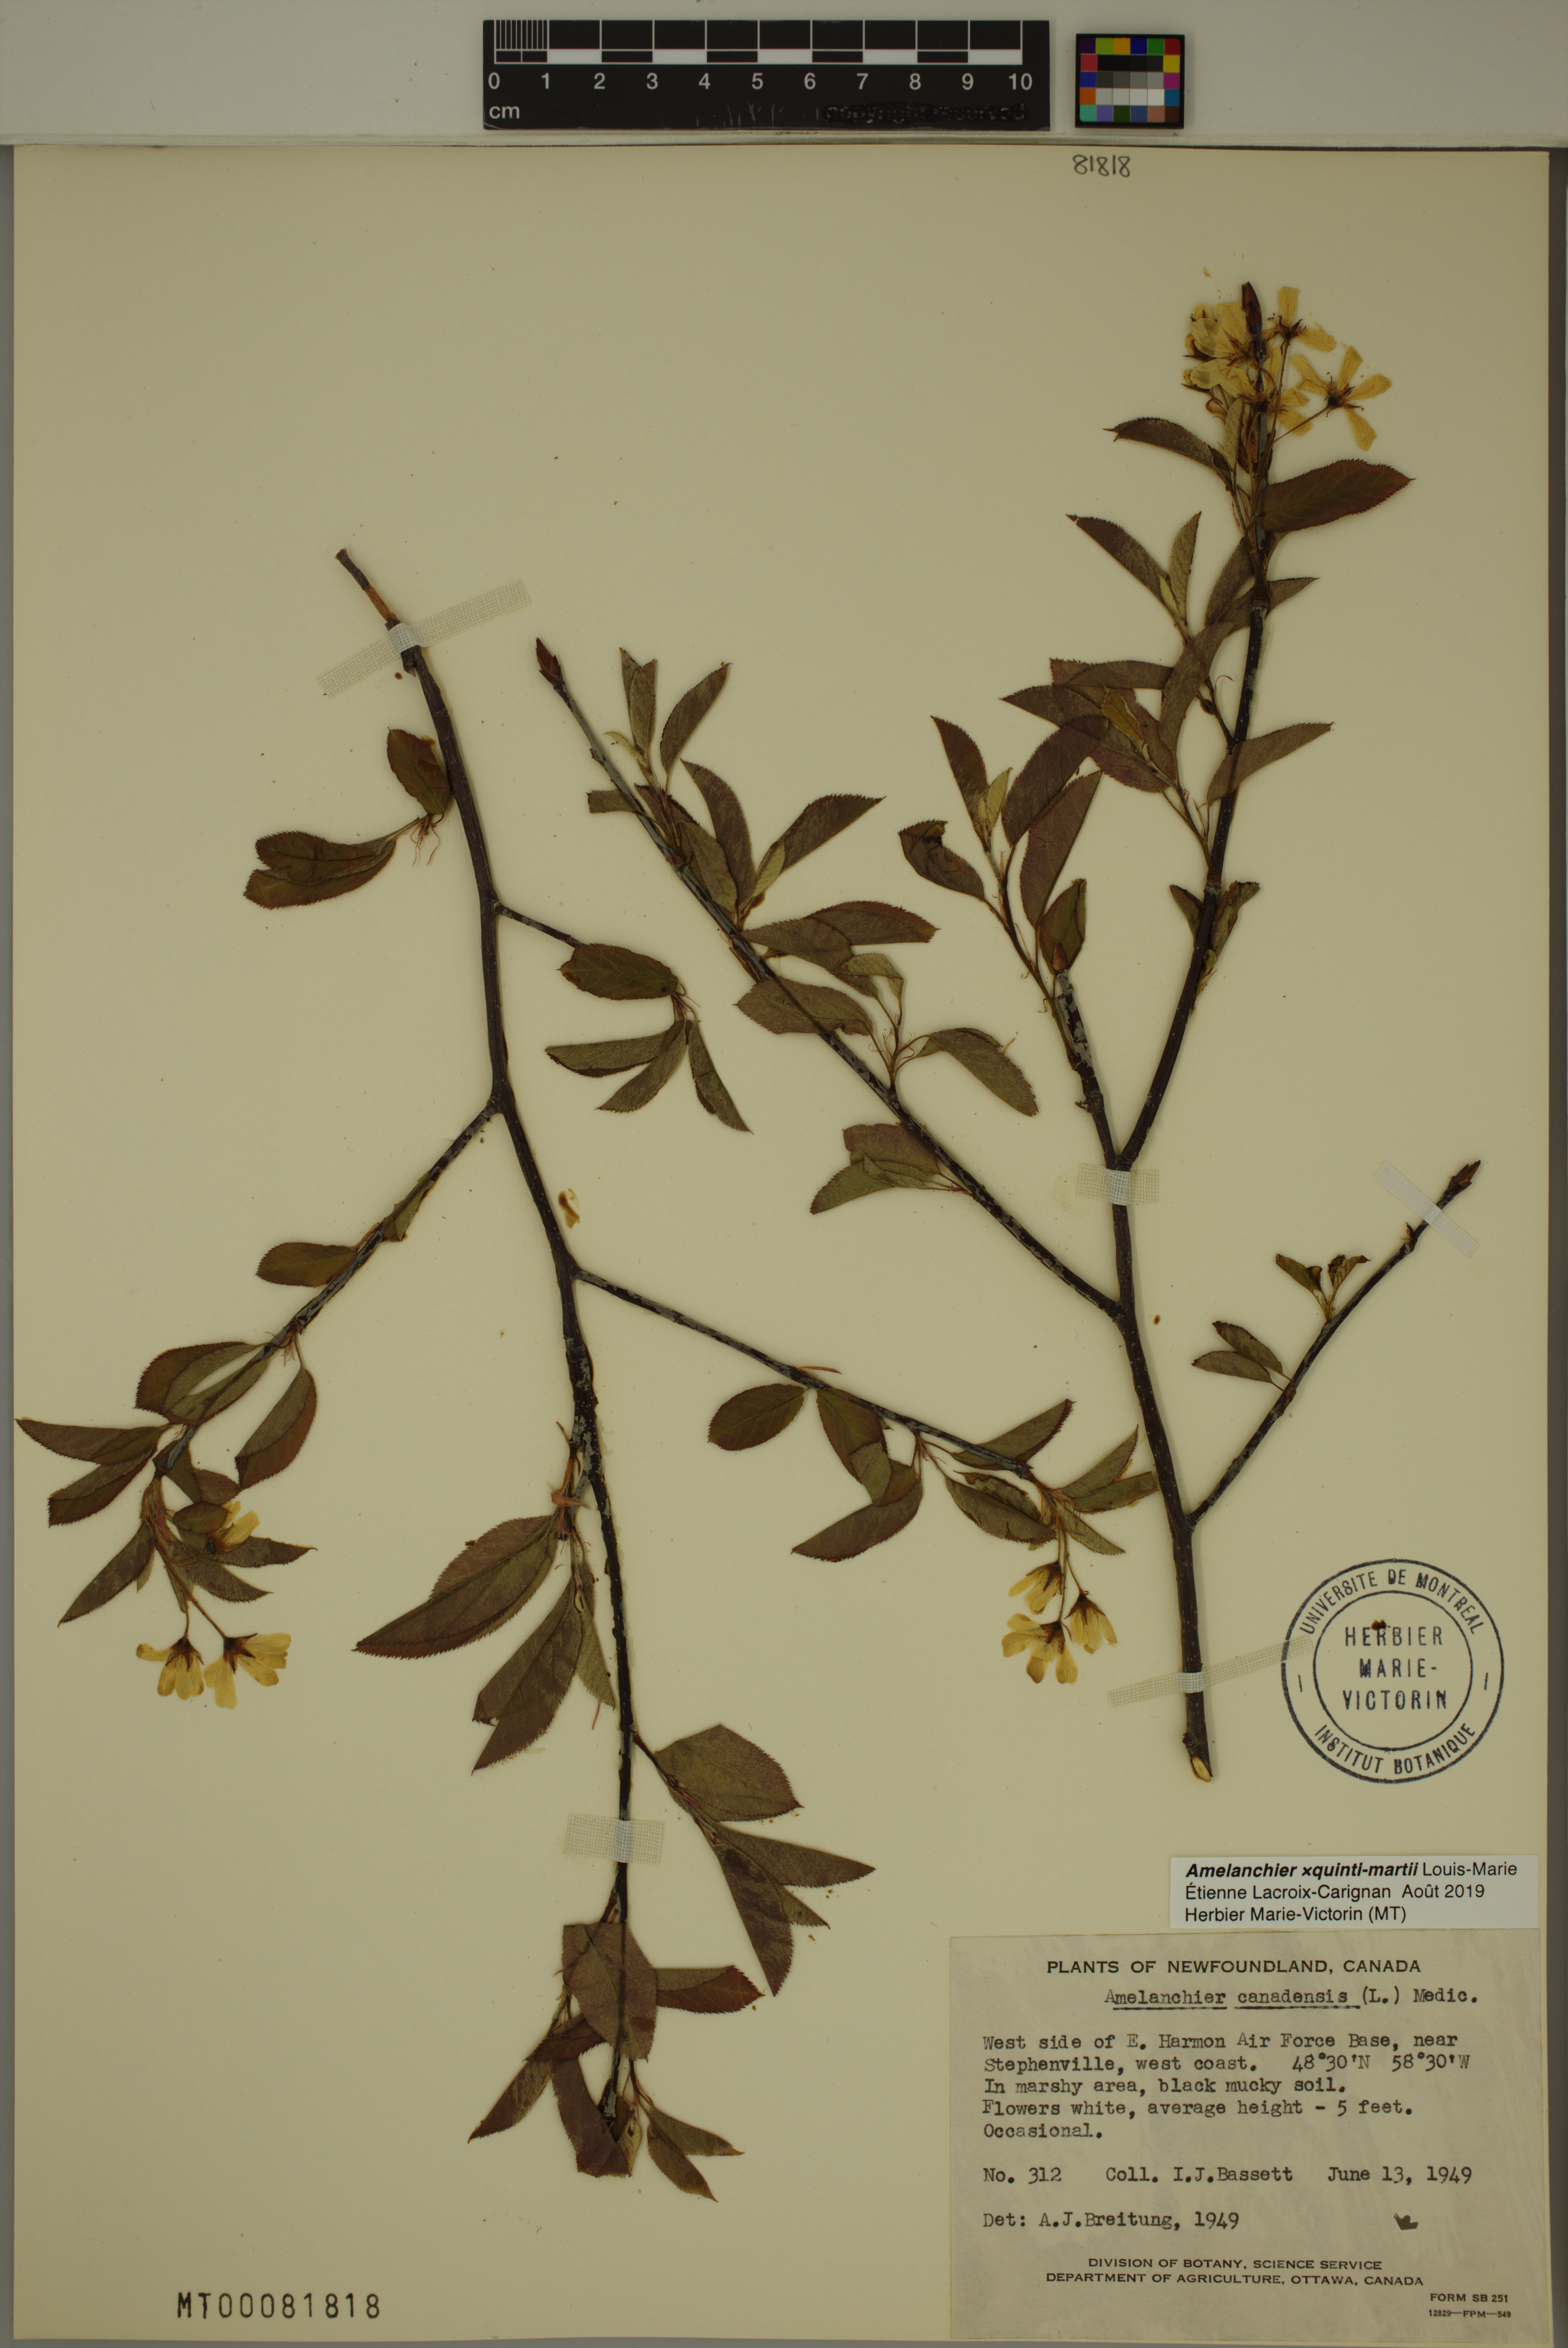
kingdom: Plantae
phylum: Tracheophyta
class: Magnoliopsida
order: Rosales
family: Rosaceae
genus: Amelanchier
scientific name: Amelanchier quinti-martii
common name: Cinq-mars' serviceberry
